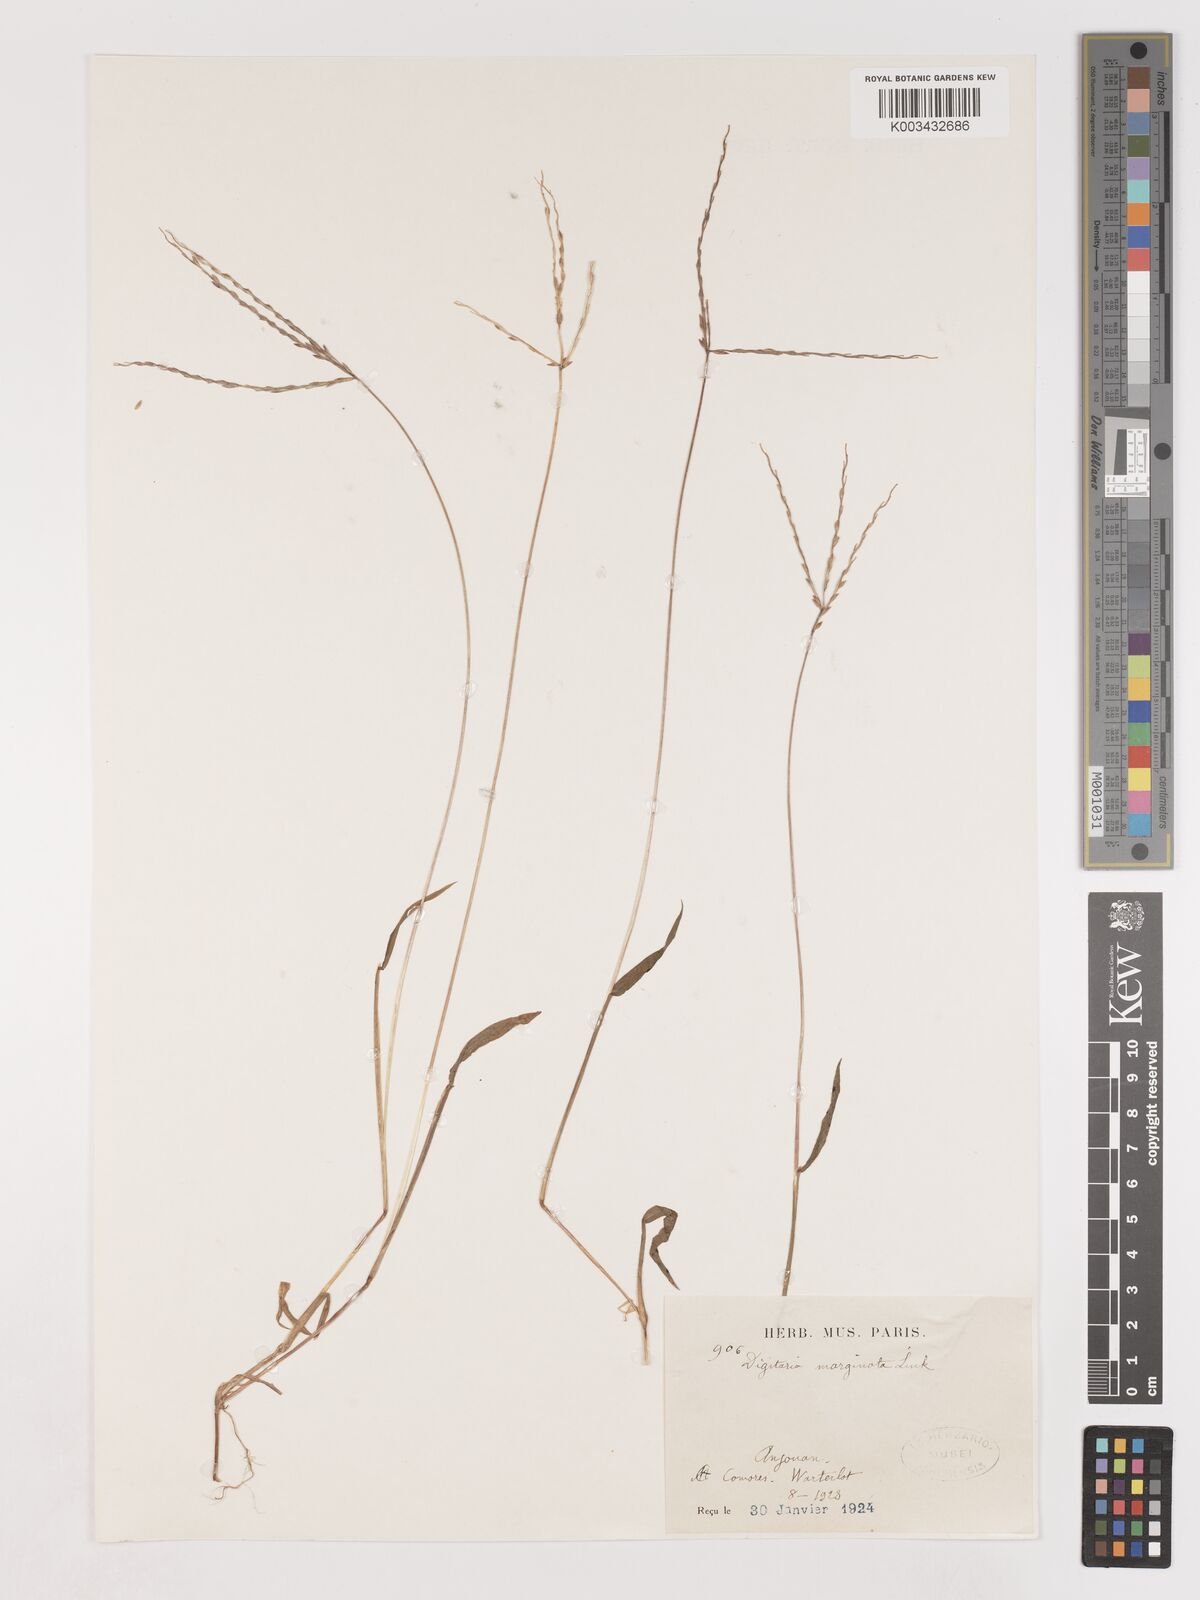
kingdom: Plantae
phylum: Tracheophyta
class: Liliopsida
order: Poales
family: Poaceae
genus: Digitaria
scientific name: Digitaria ciliaris
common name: Tropical finger-grass
